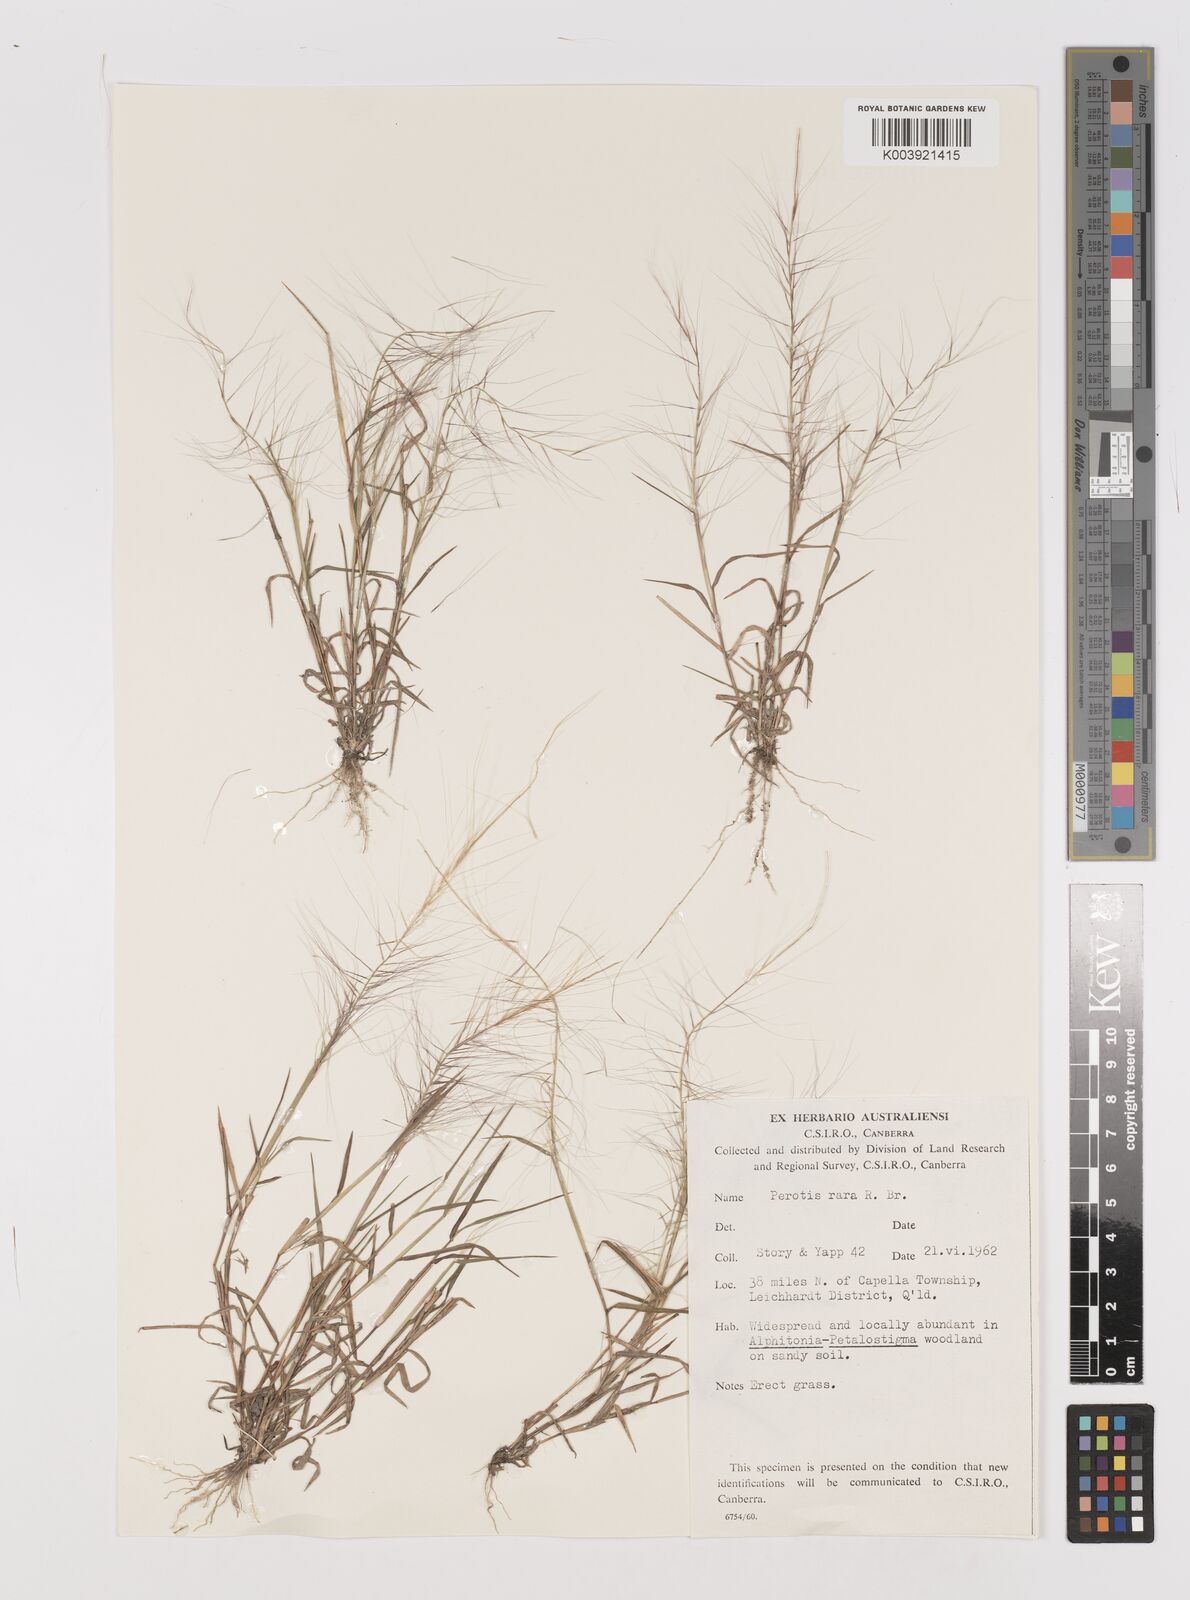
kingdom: Plantae
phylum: Tracheophyta
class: Liliopsida
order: Poales
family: Poaceae
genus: Perotis
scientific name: Perotis rara
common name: Comet grass
